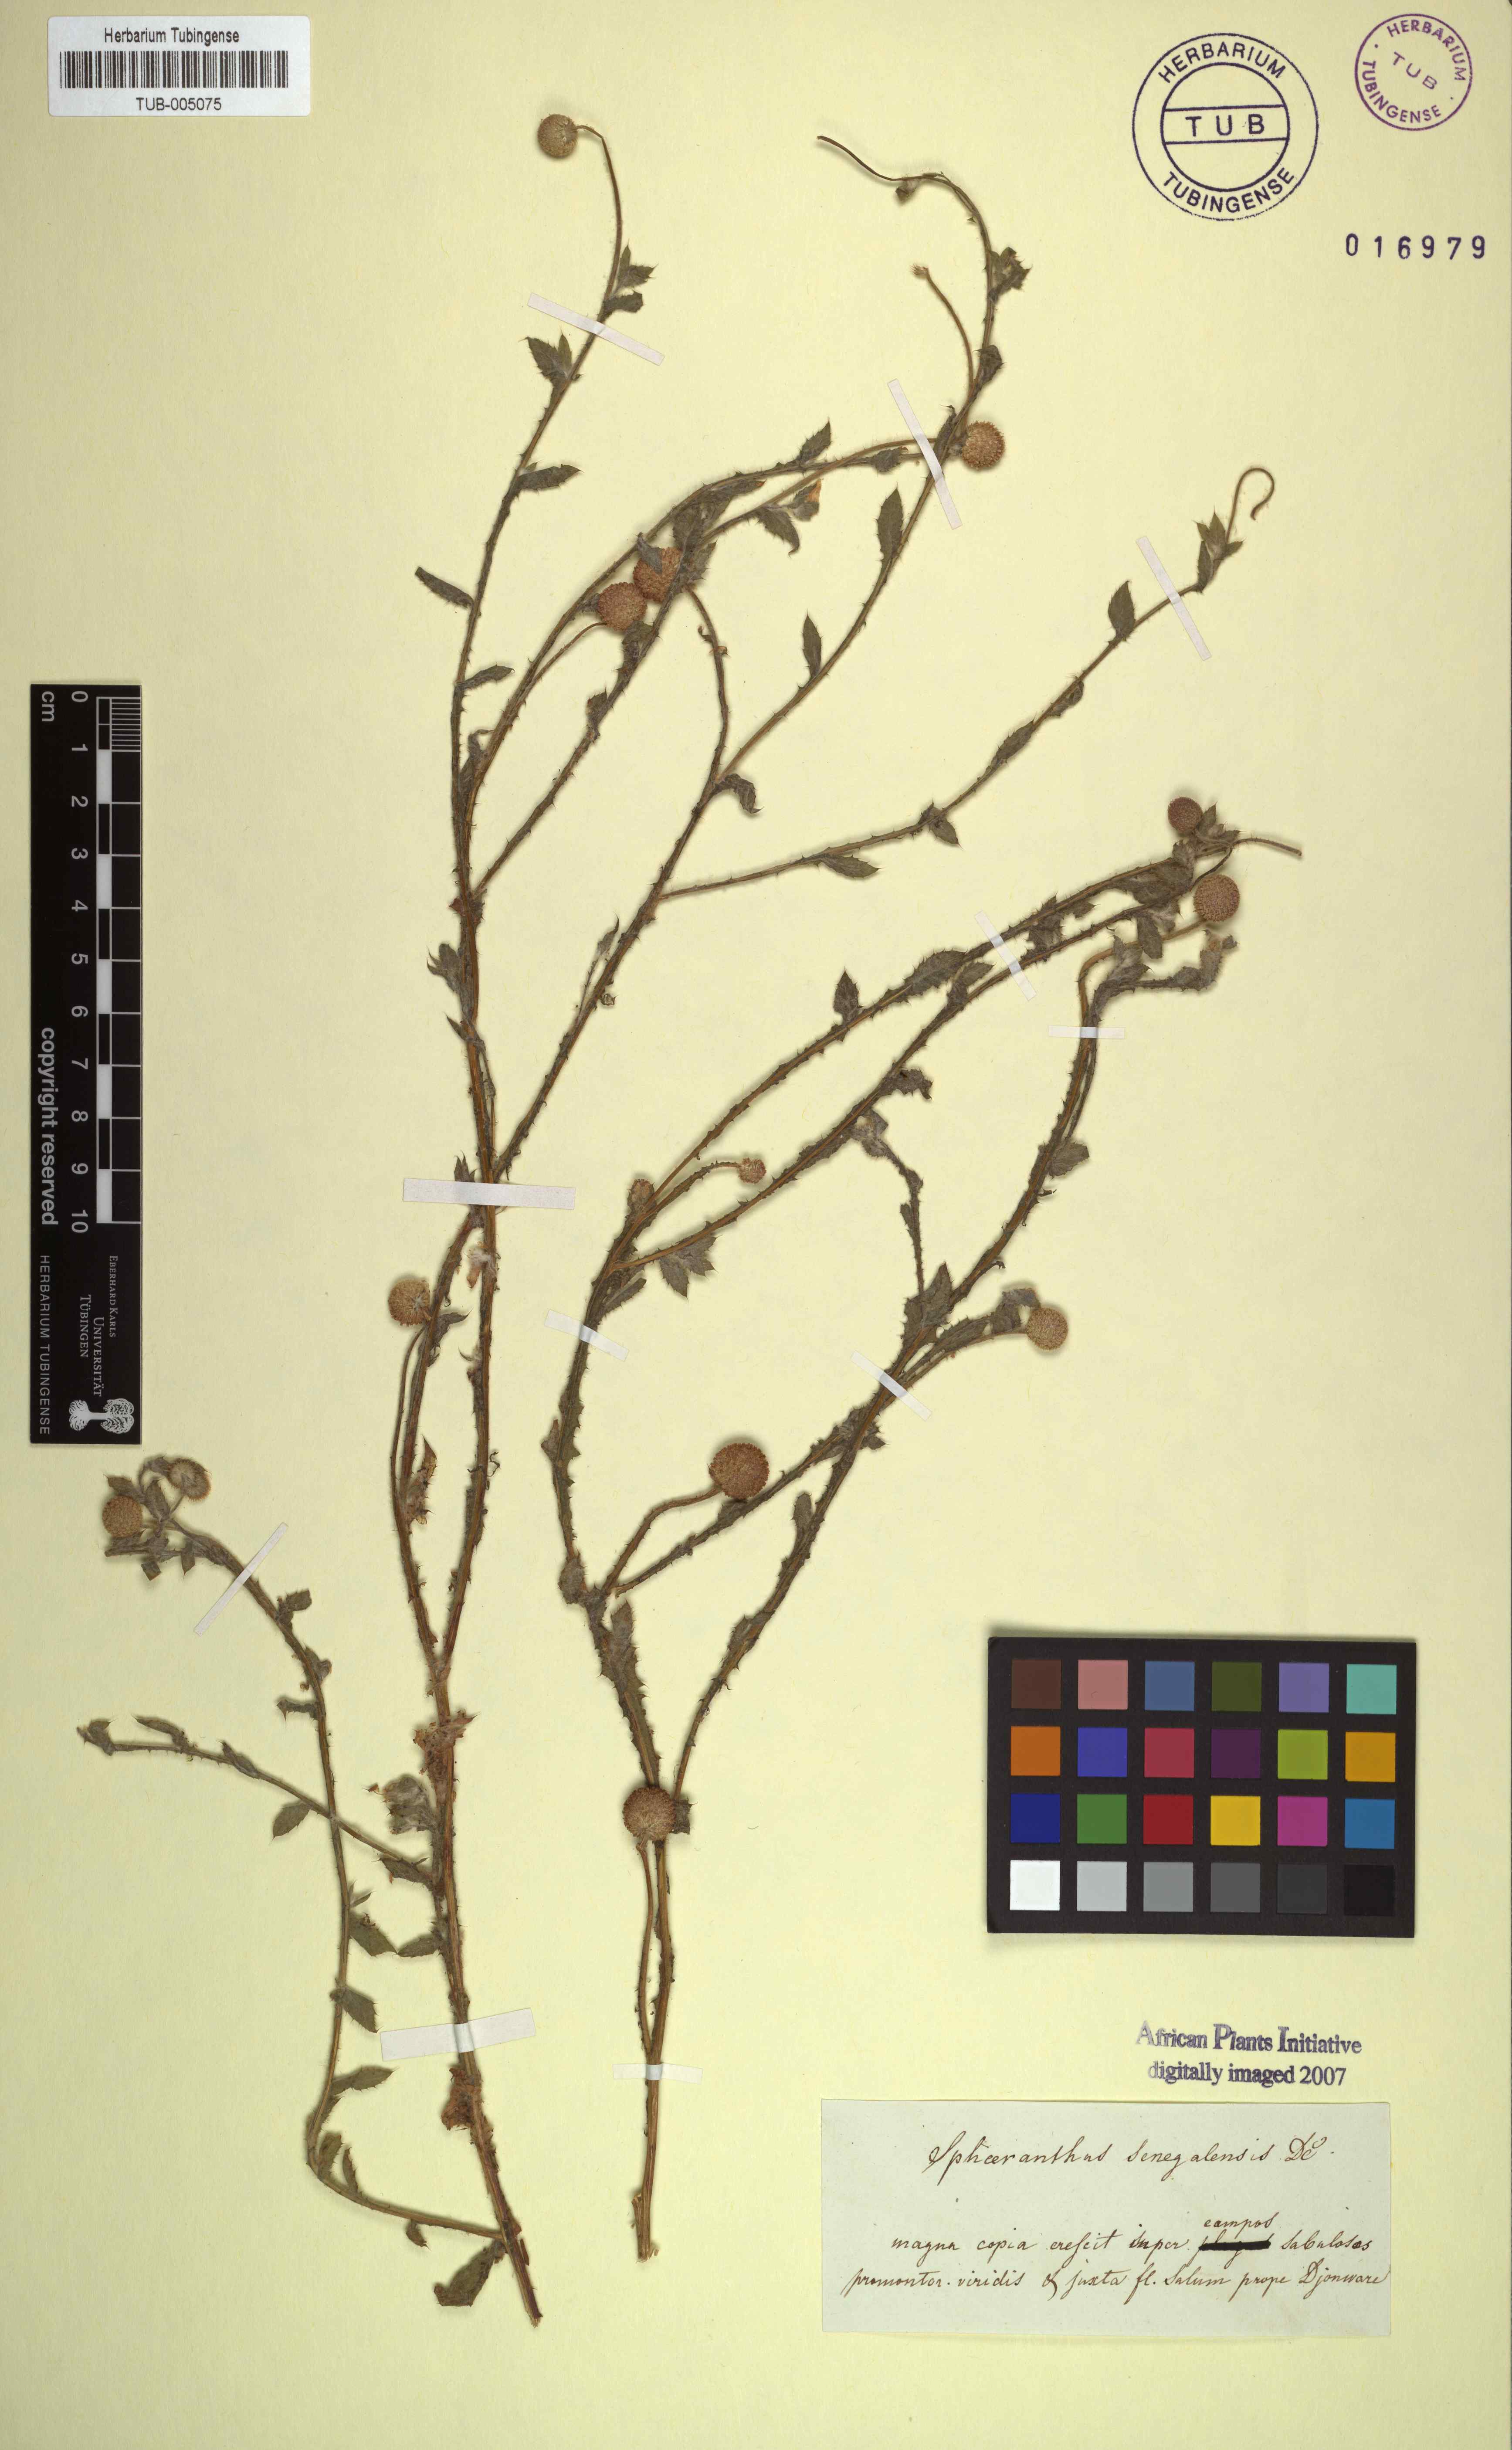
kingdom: Plantae
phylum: Tracheophyta
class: Magnoliopsida
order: Asterales
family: Asteraceae
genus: Sphaeranthus
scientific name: Sphaeranthus africanus
